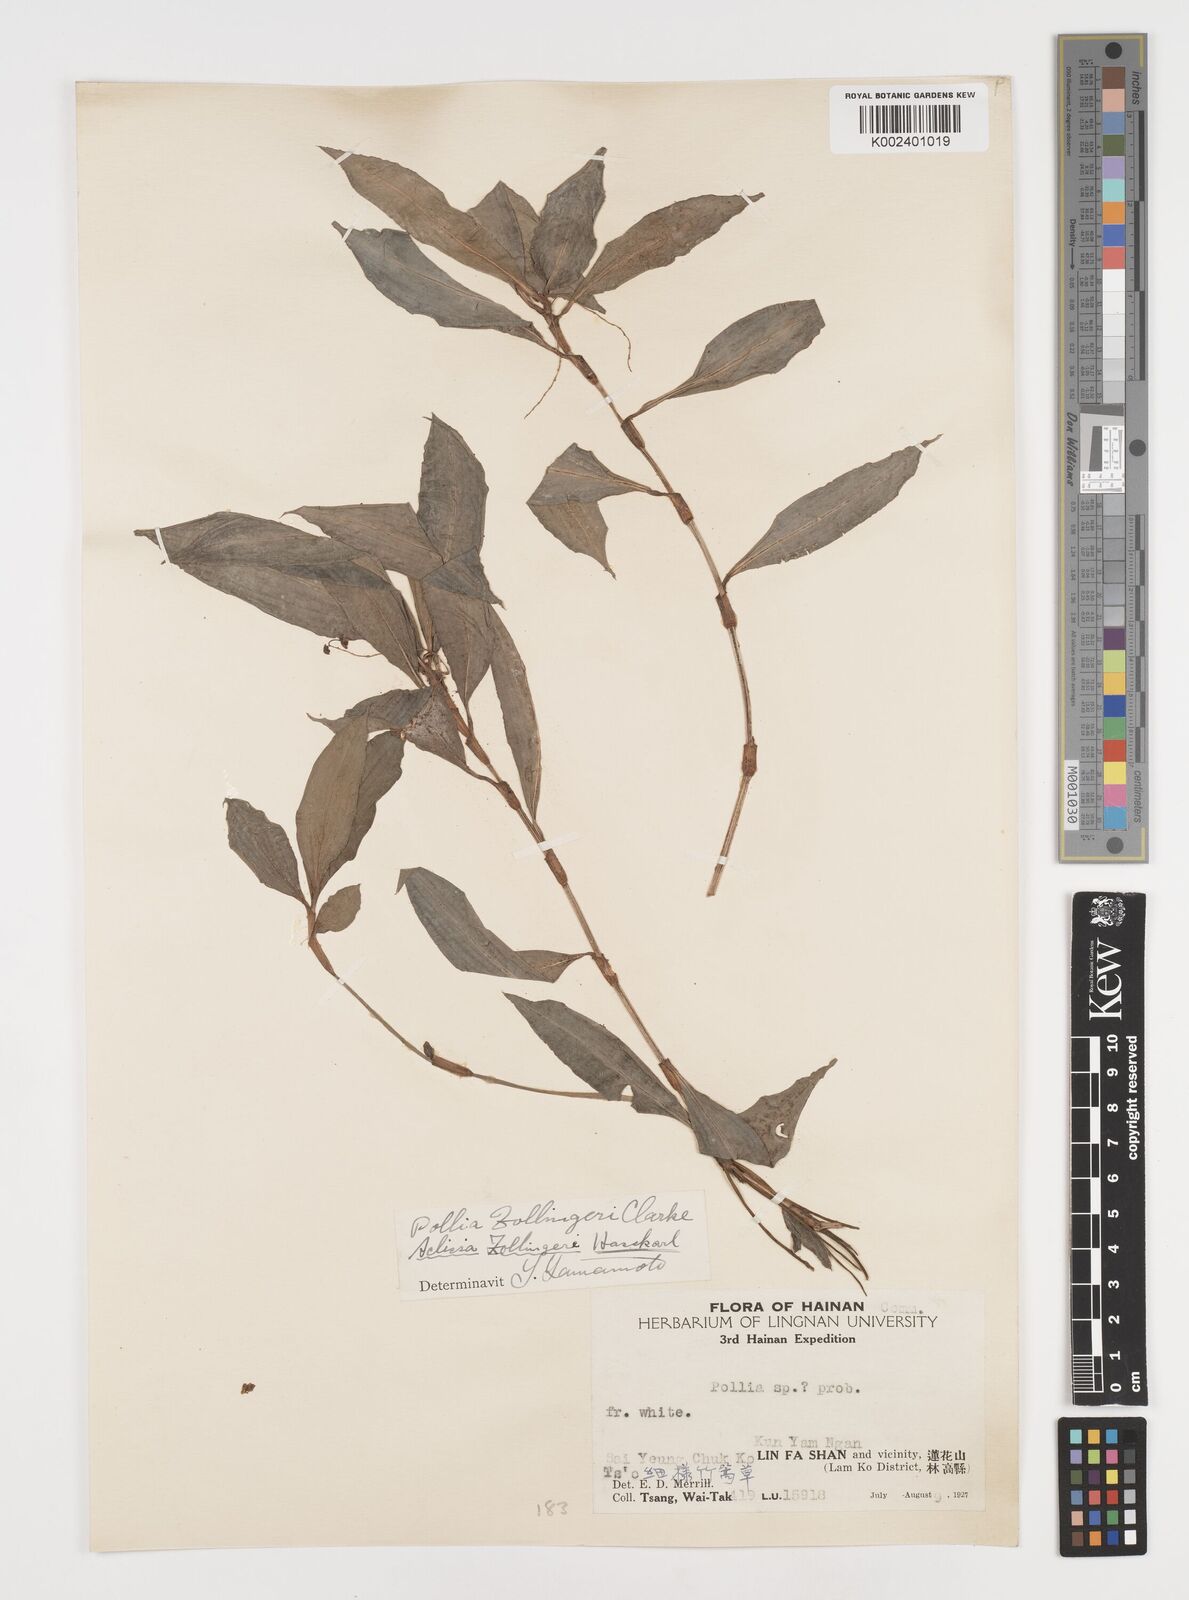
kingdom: Plantae
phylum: Tracheophyta
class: Liliopsida
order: Commelinales
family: Commelinaceae
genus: Pollia
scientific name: Pollia zollingeri
